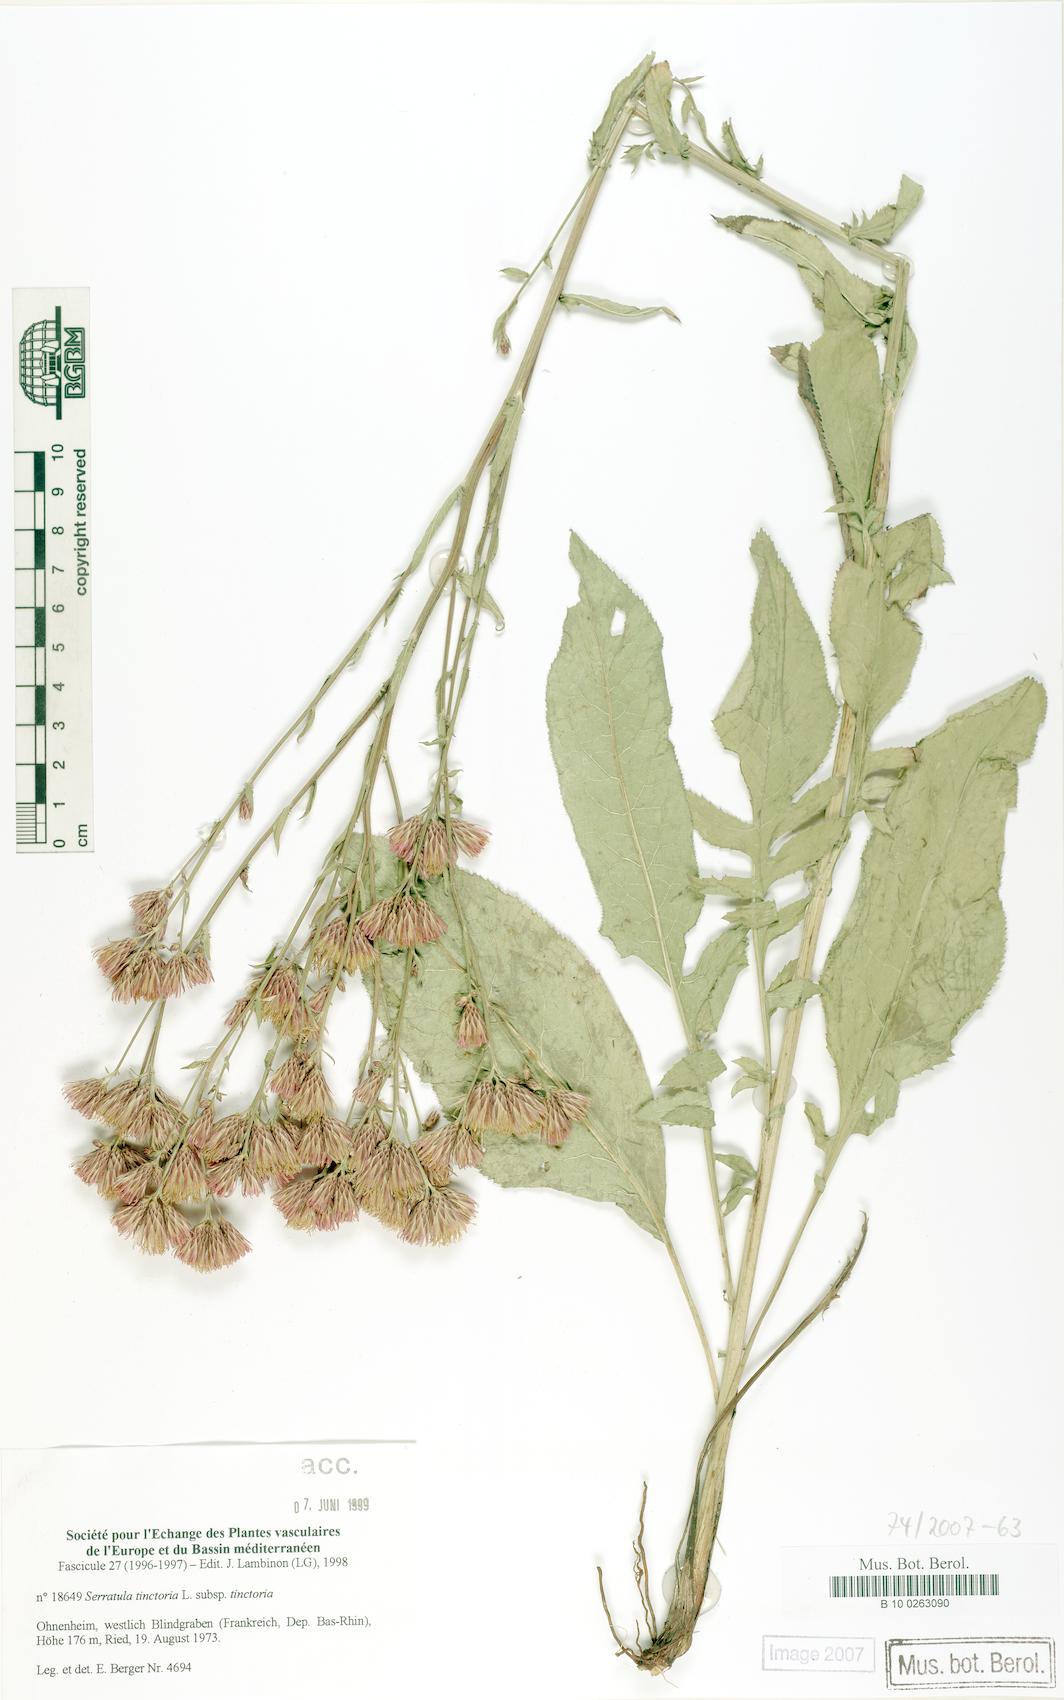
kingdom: Plantae
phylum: Tracheophyta
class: Magnoliopsida
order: Asterales
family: Asteraceae
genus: Serratula
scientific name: Serratula tinctoria
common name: Saw-wort
